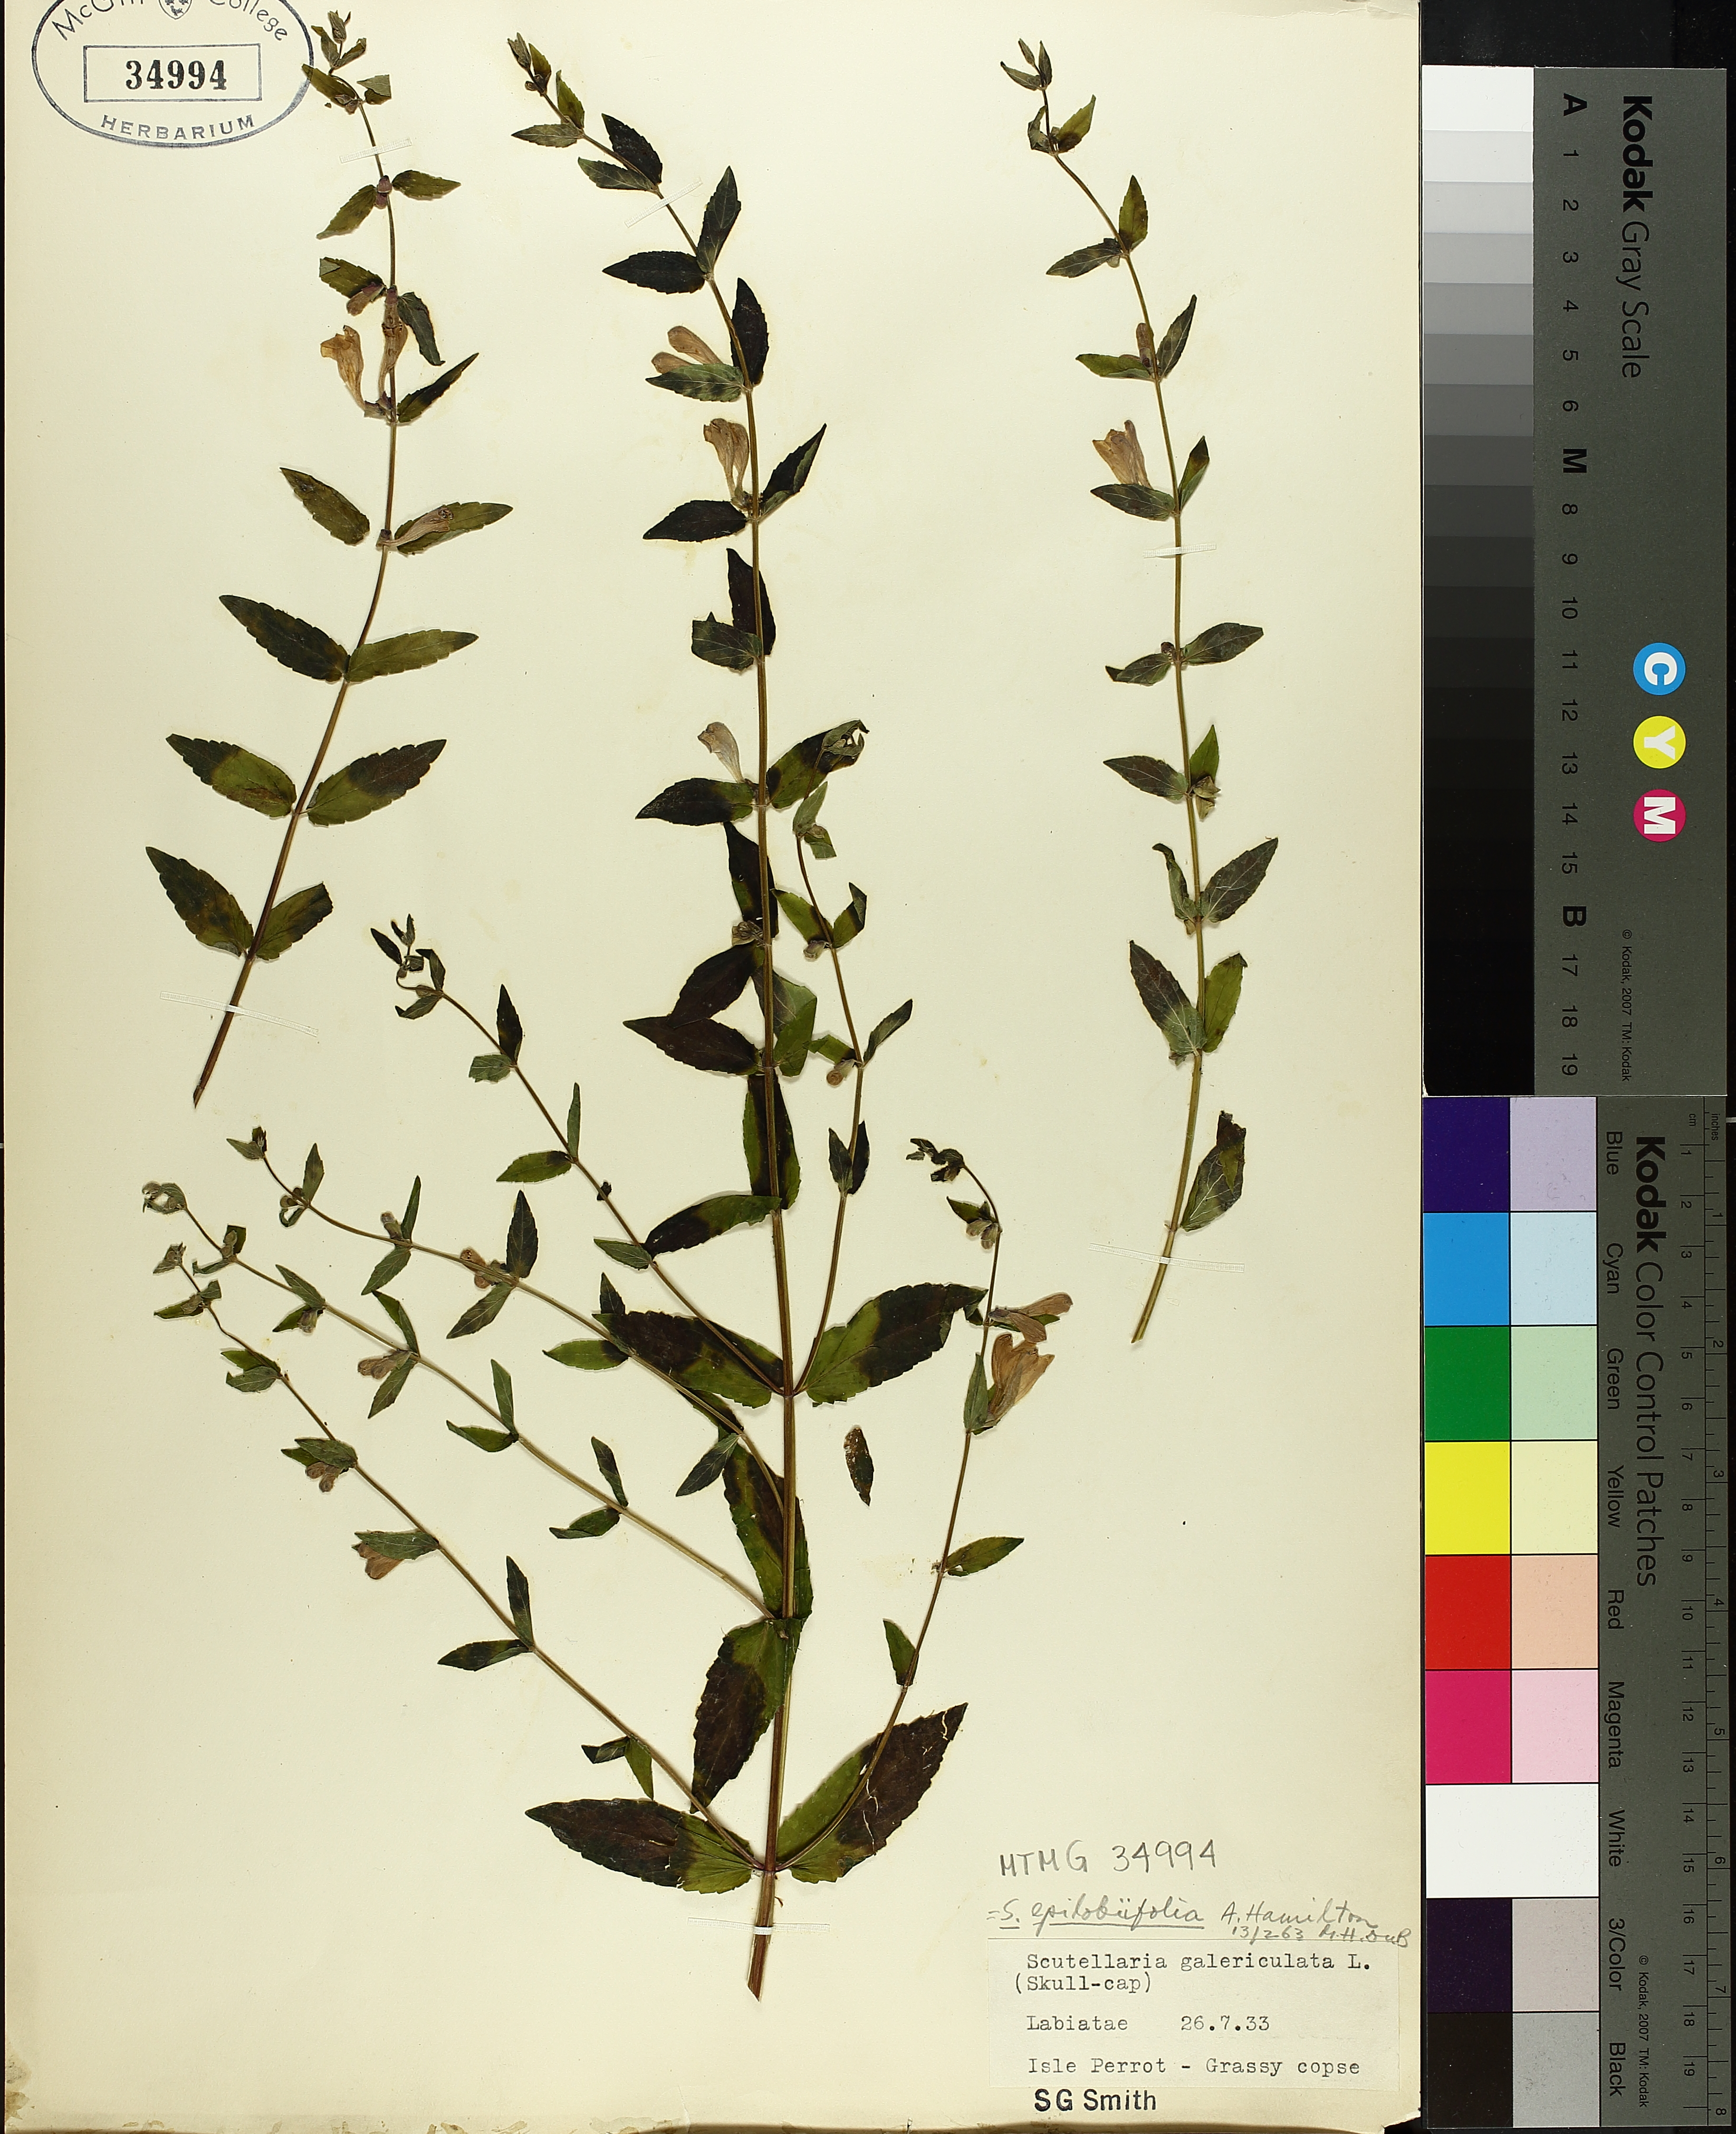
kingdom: Plantae
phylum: Tracheophyta
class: Magnoliopsida
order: Lamiales
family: Lamiaceae
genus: Scutellaria
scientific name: Scutellaria galericulata
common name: Skullcap
